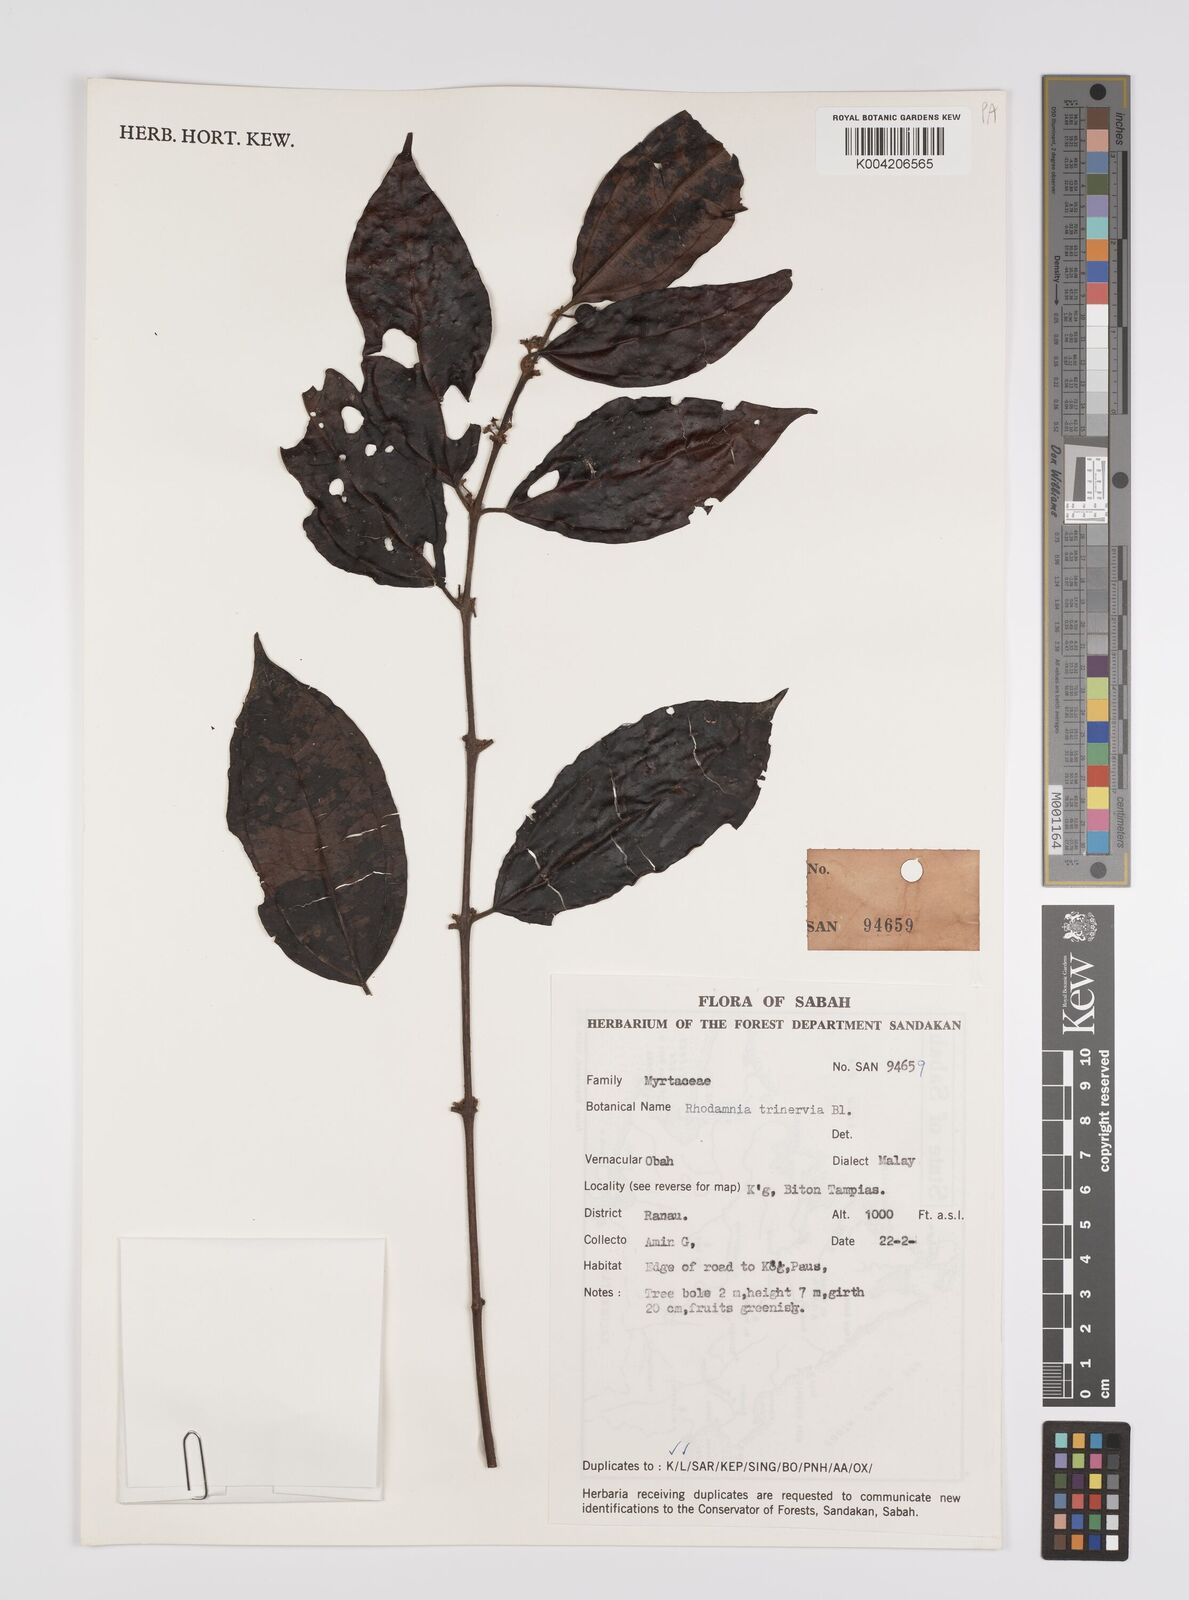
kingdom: Plantae
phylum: Tracheophyta
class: Magnoliopsida
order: Myrtales
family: Myrtaceae
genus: Rhodamnia
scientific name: Rhodamnia rubescens
